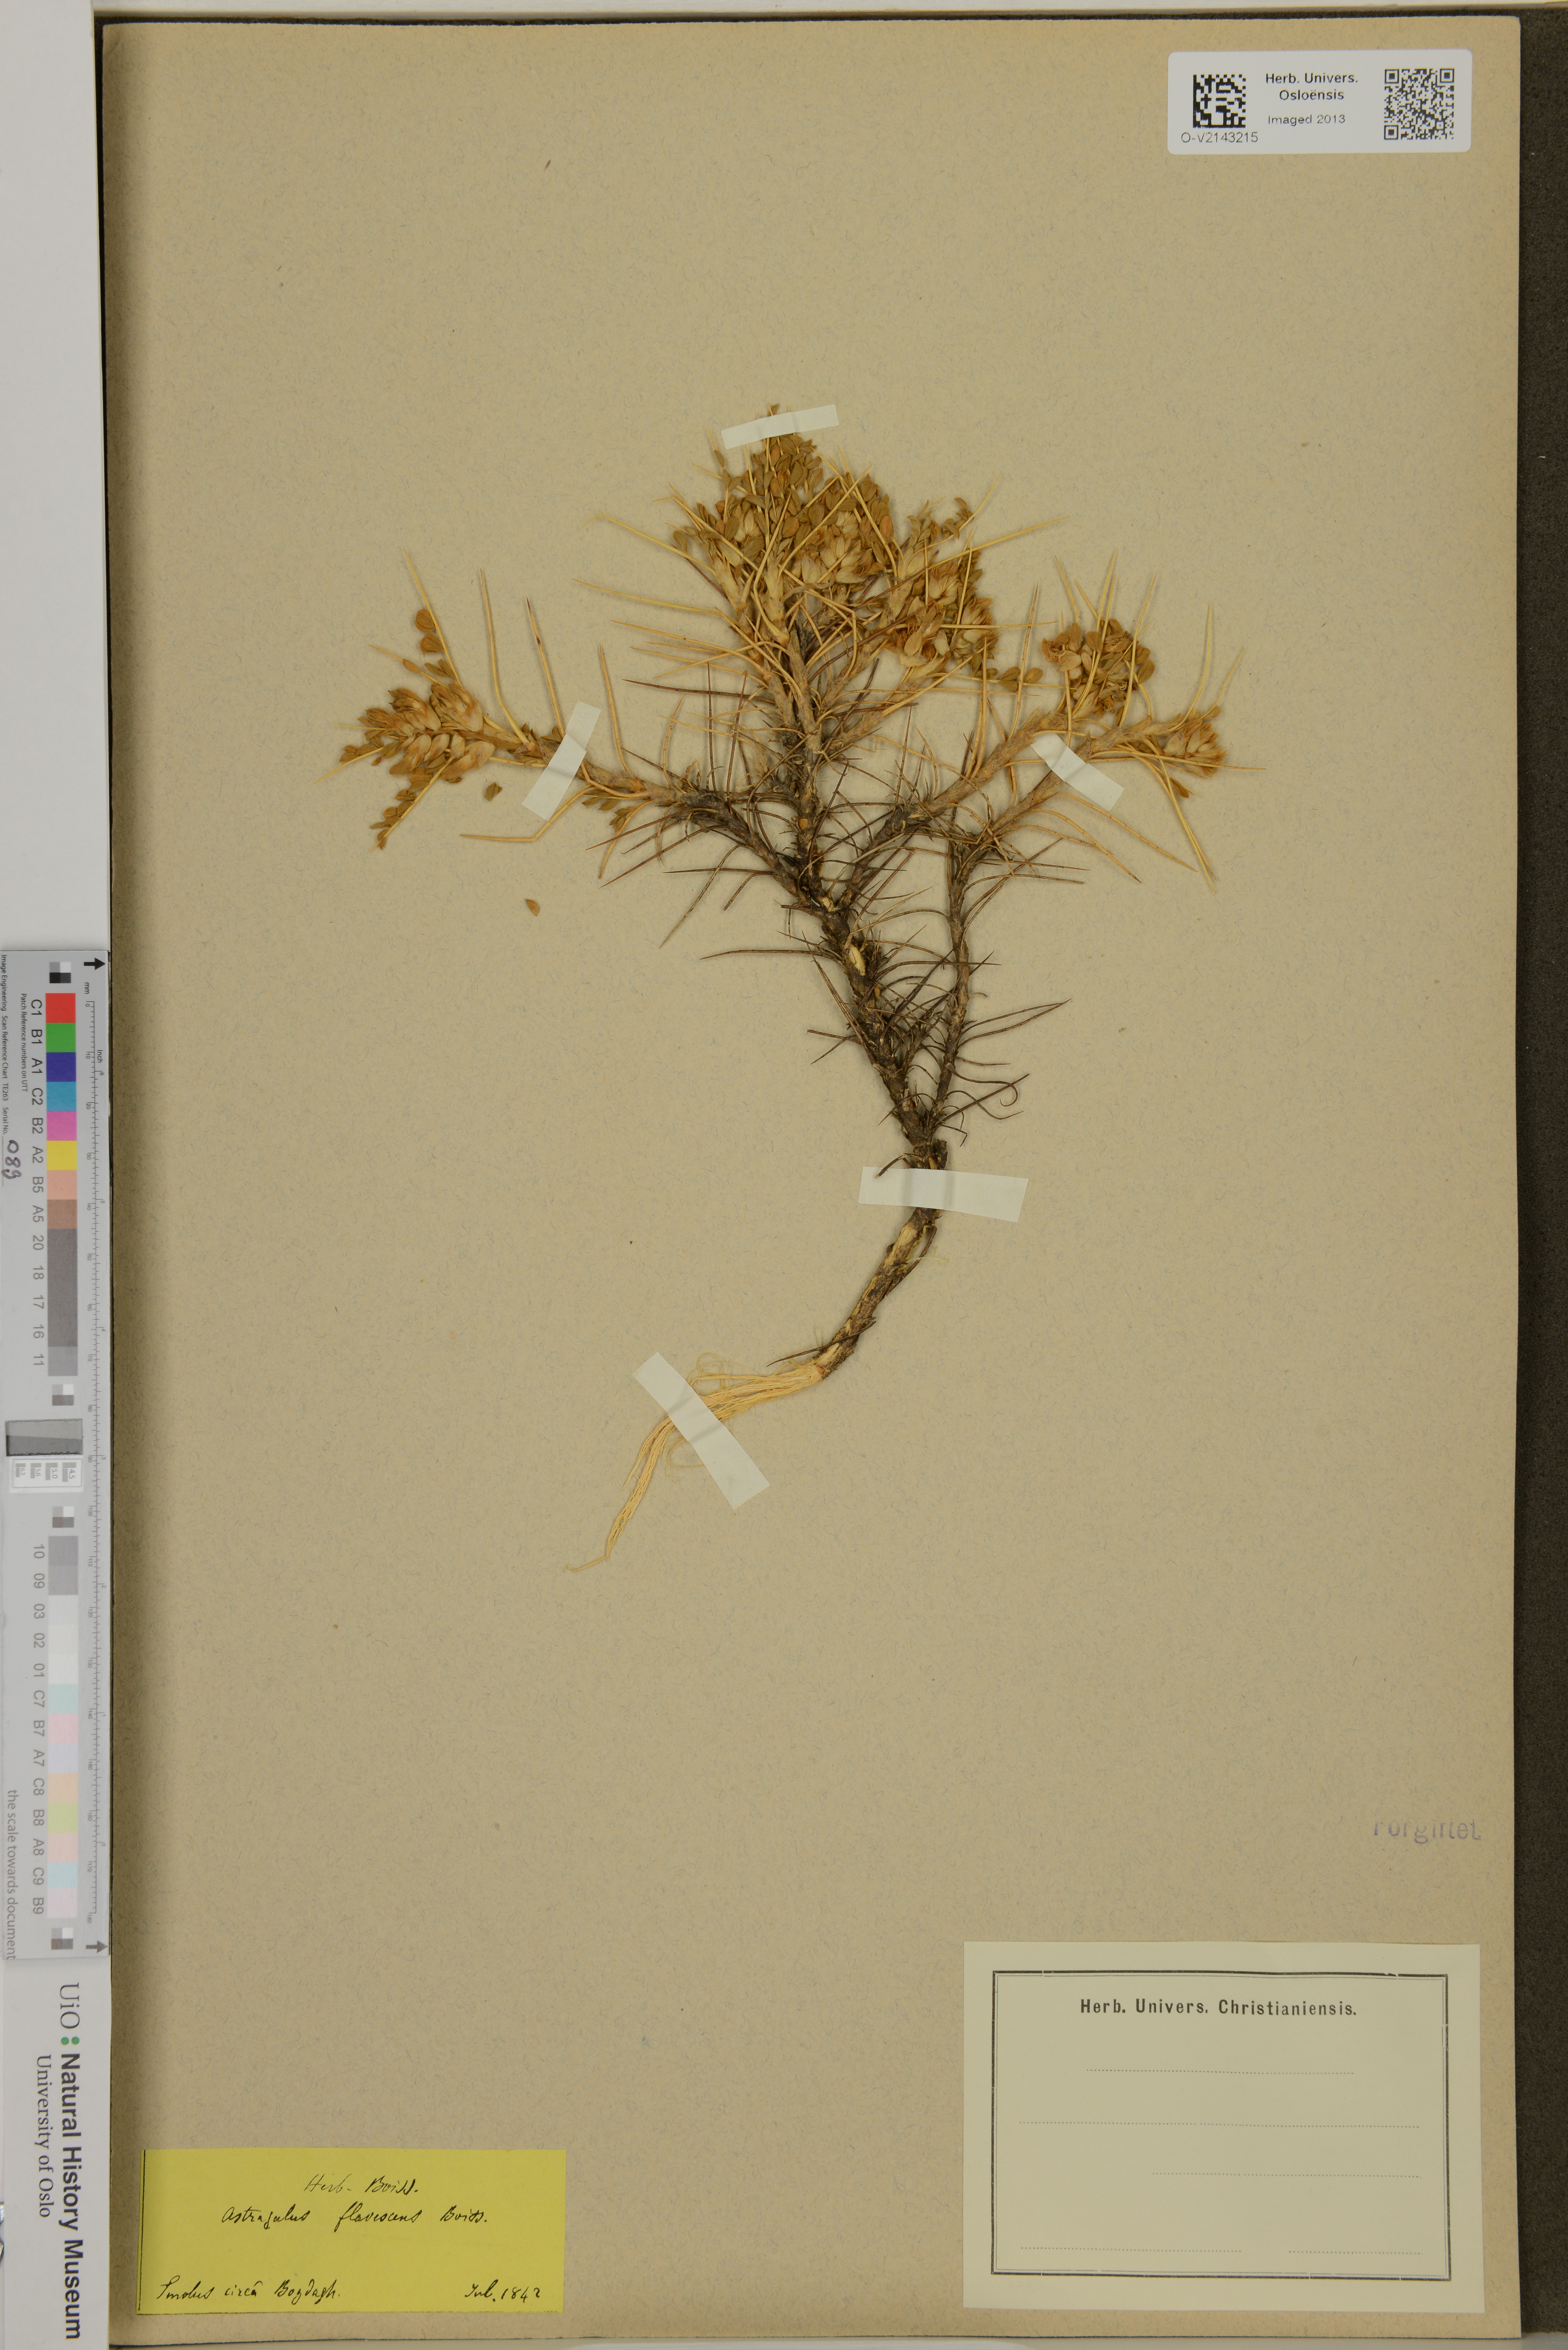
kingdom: Plantae
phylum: Tracheophyta
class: Magnoliopsida
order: Fabales
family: Fabaceae
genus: Astragalus
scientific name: Astragalus flavescens
